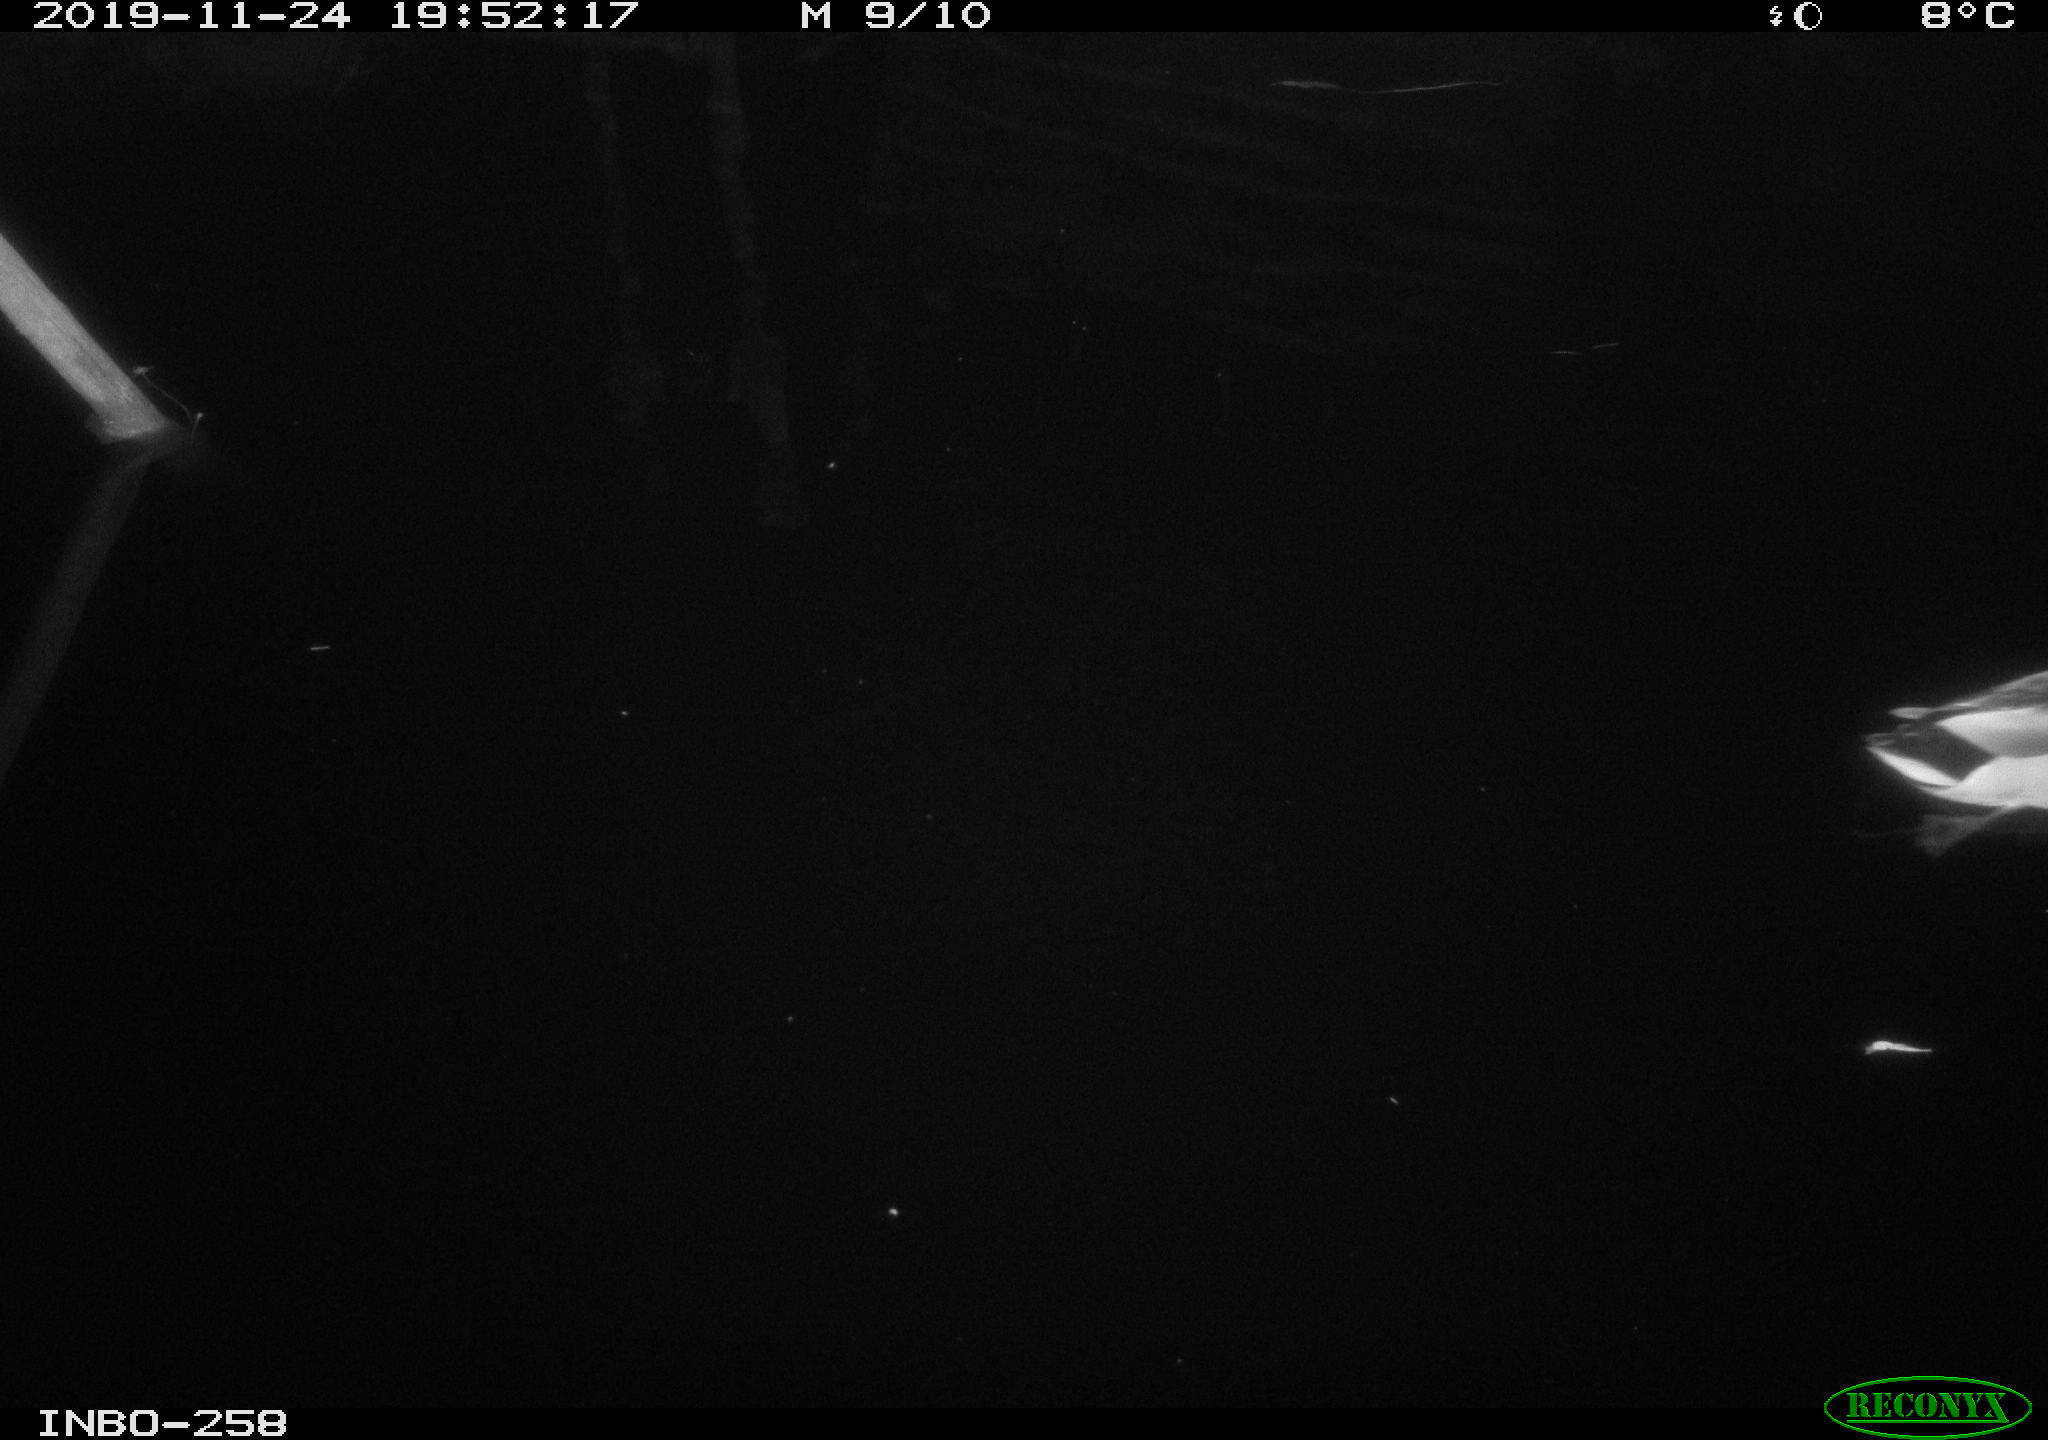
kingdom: Animalia
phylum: Chordata
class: Aves
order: Anseriformes
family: Anatidae
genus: Anas
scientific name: Anas platyrhynchos
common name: Mallard
